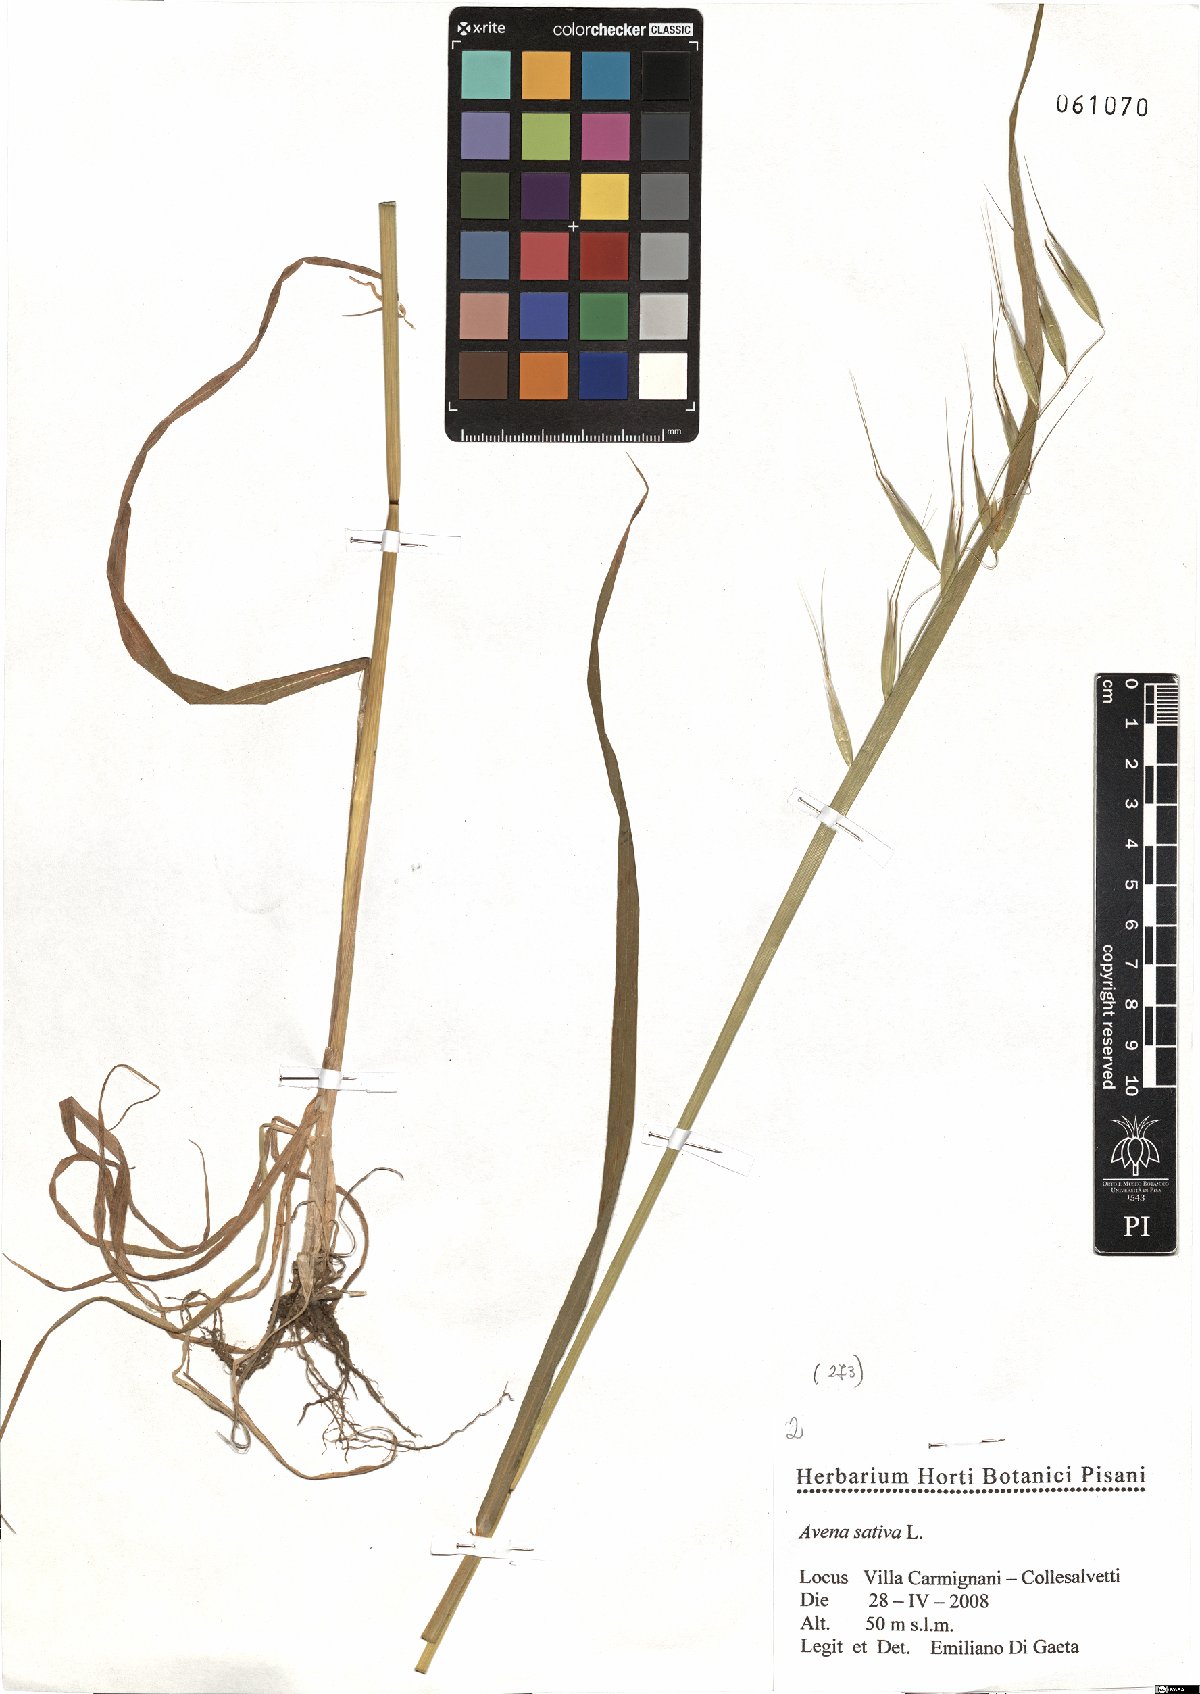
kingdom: Plantae
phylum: Tracheophyta
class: Liliopsida
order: Poales
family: Poaceae
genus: Avena
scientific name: Avena sativa
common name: Oat
